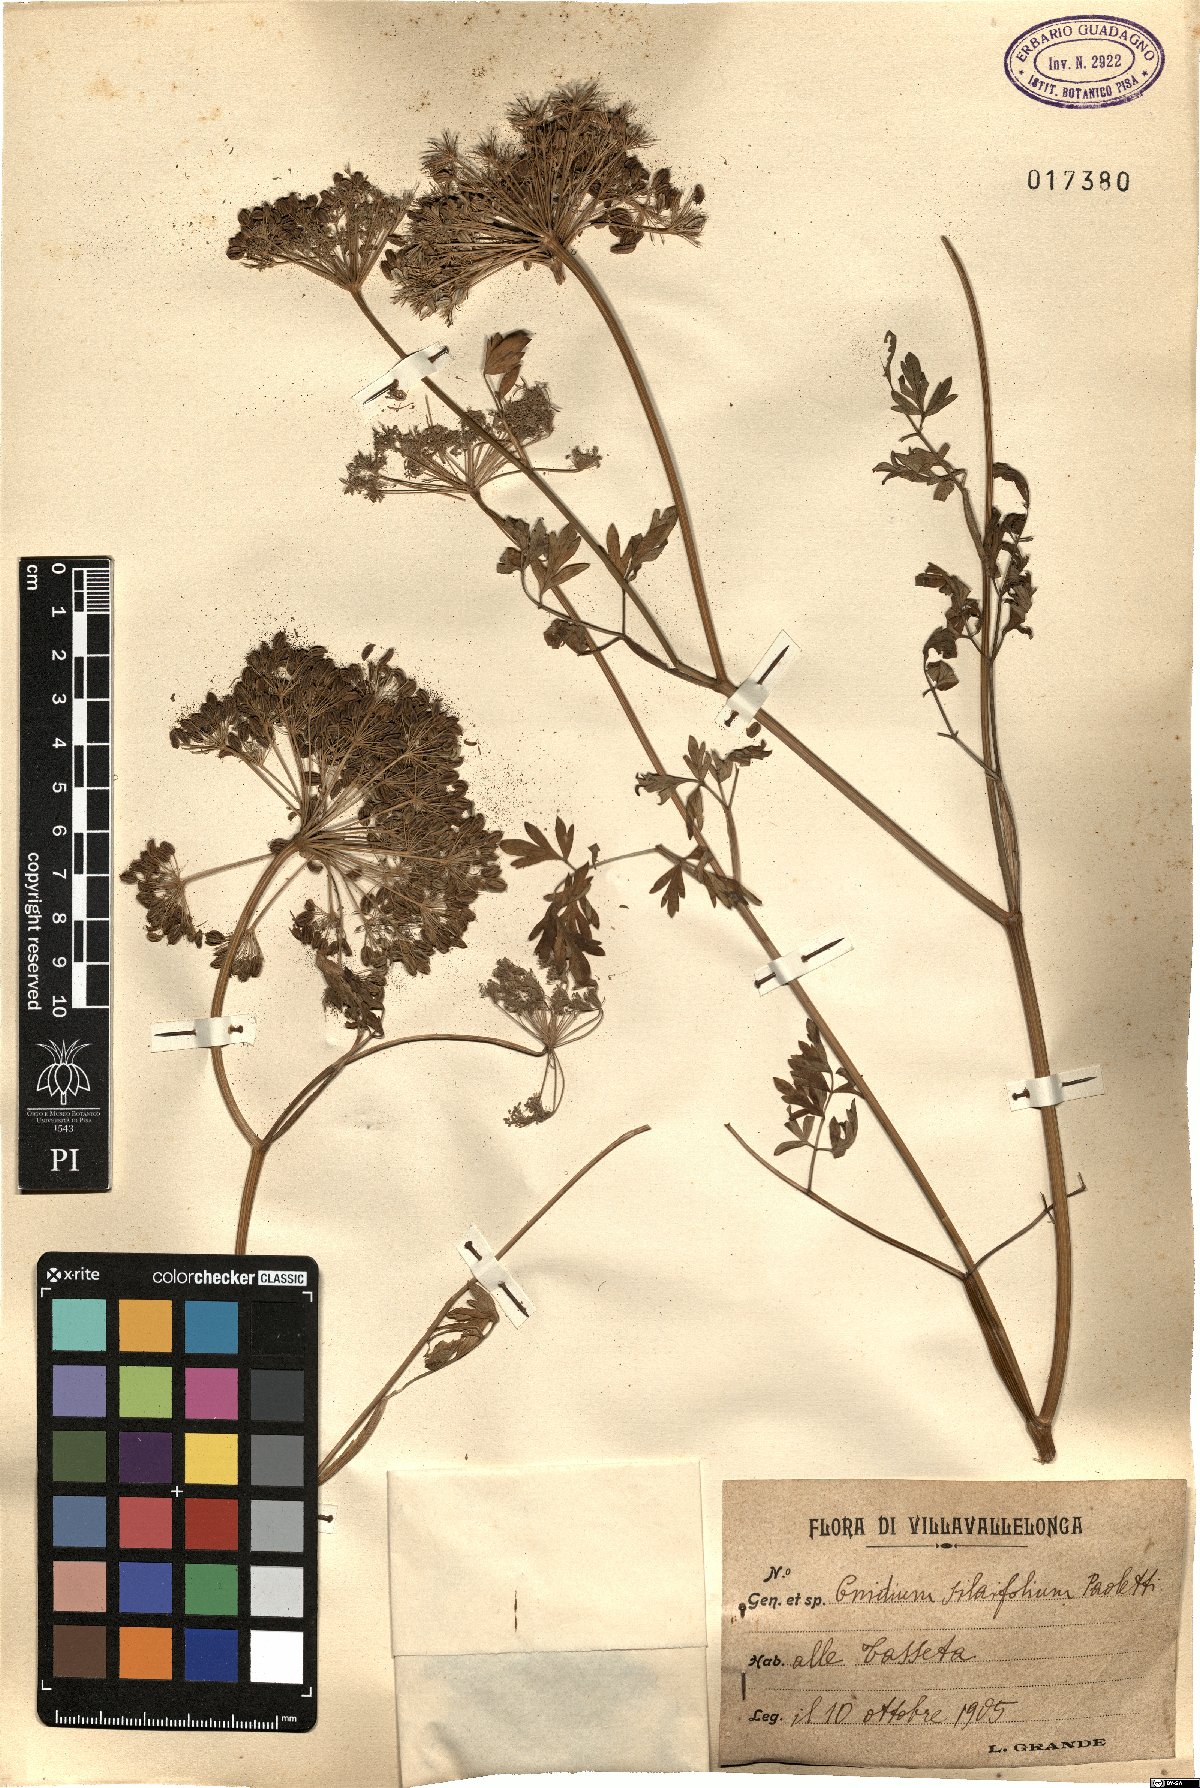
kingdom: Plantae
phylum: Tracheophyta
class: Magnoliopsida
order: Apiales
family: Apiaceae
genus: Katapsuxis
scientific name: Katapsuxis silaifolia
